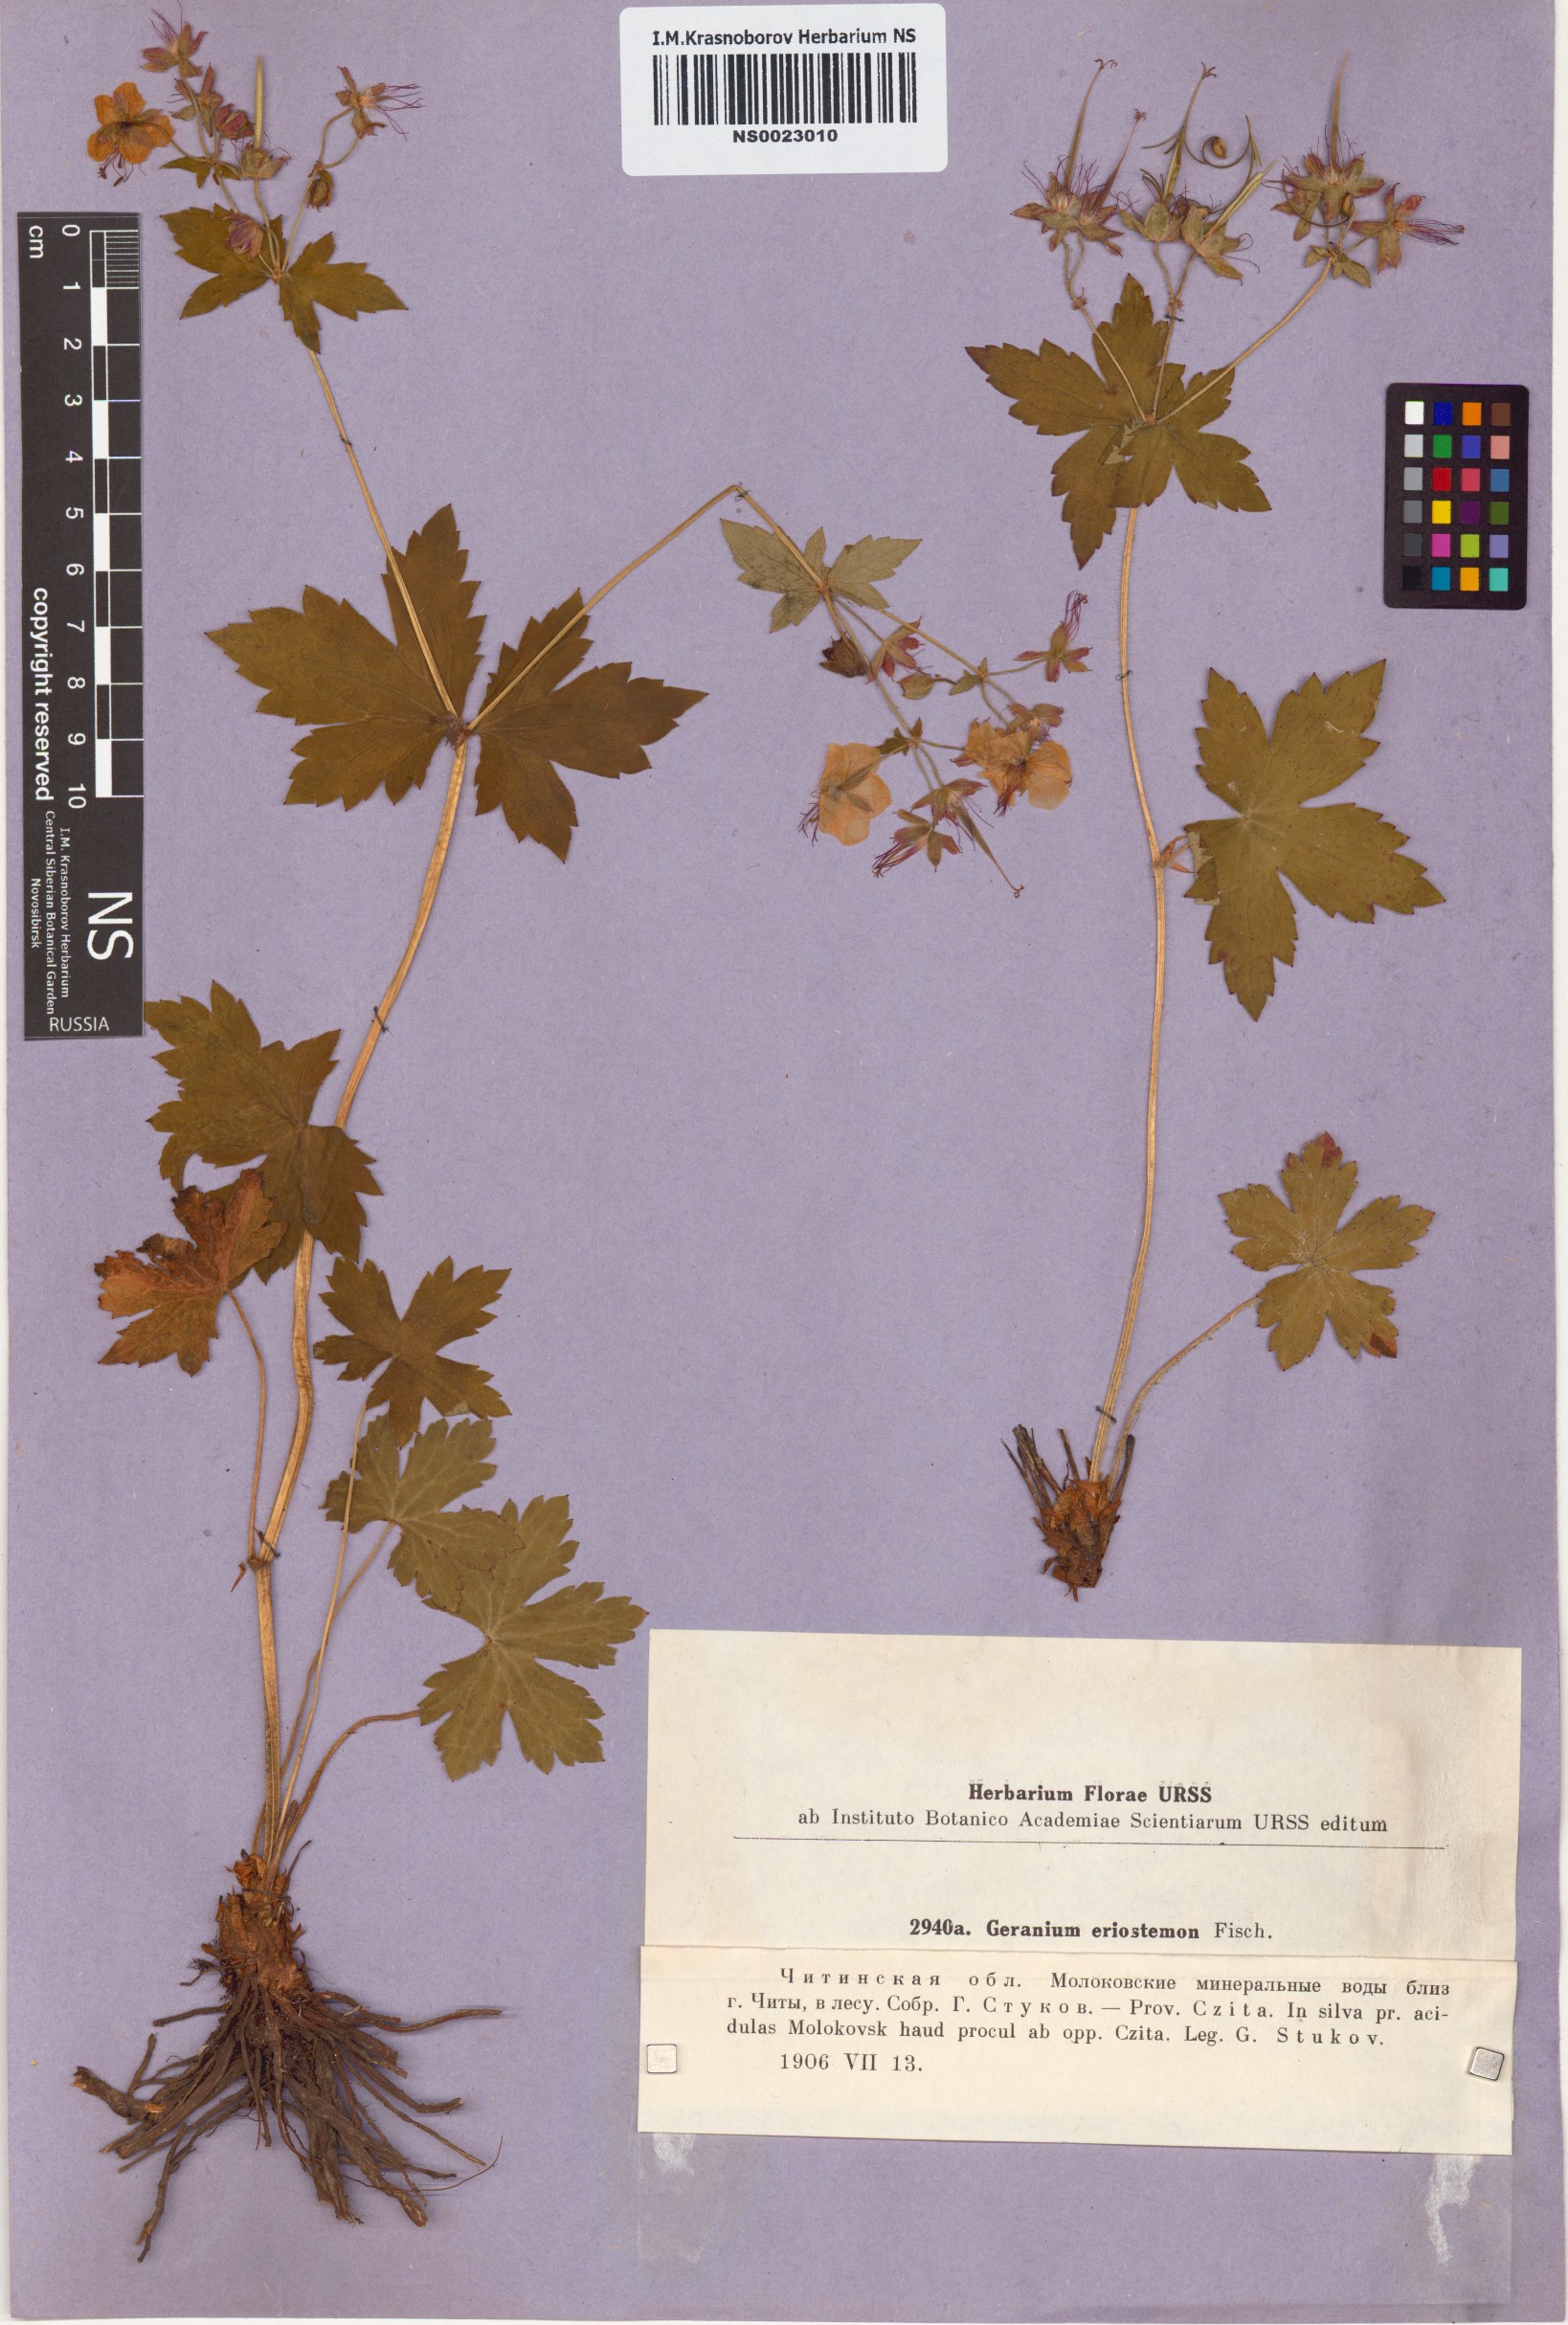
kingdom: Plantae
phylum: Tracheophyta
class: Magnoliopsida
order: Geraniales
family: Geraniaceae
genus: Geranium
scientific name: Geranium platyanthum
